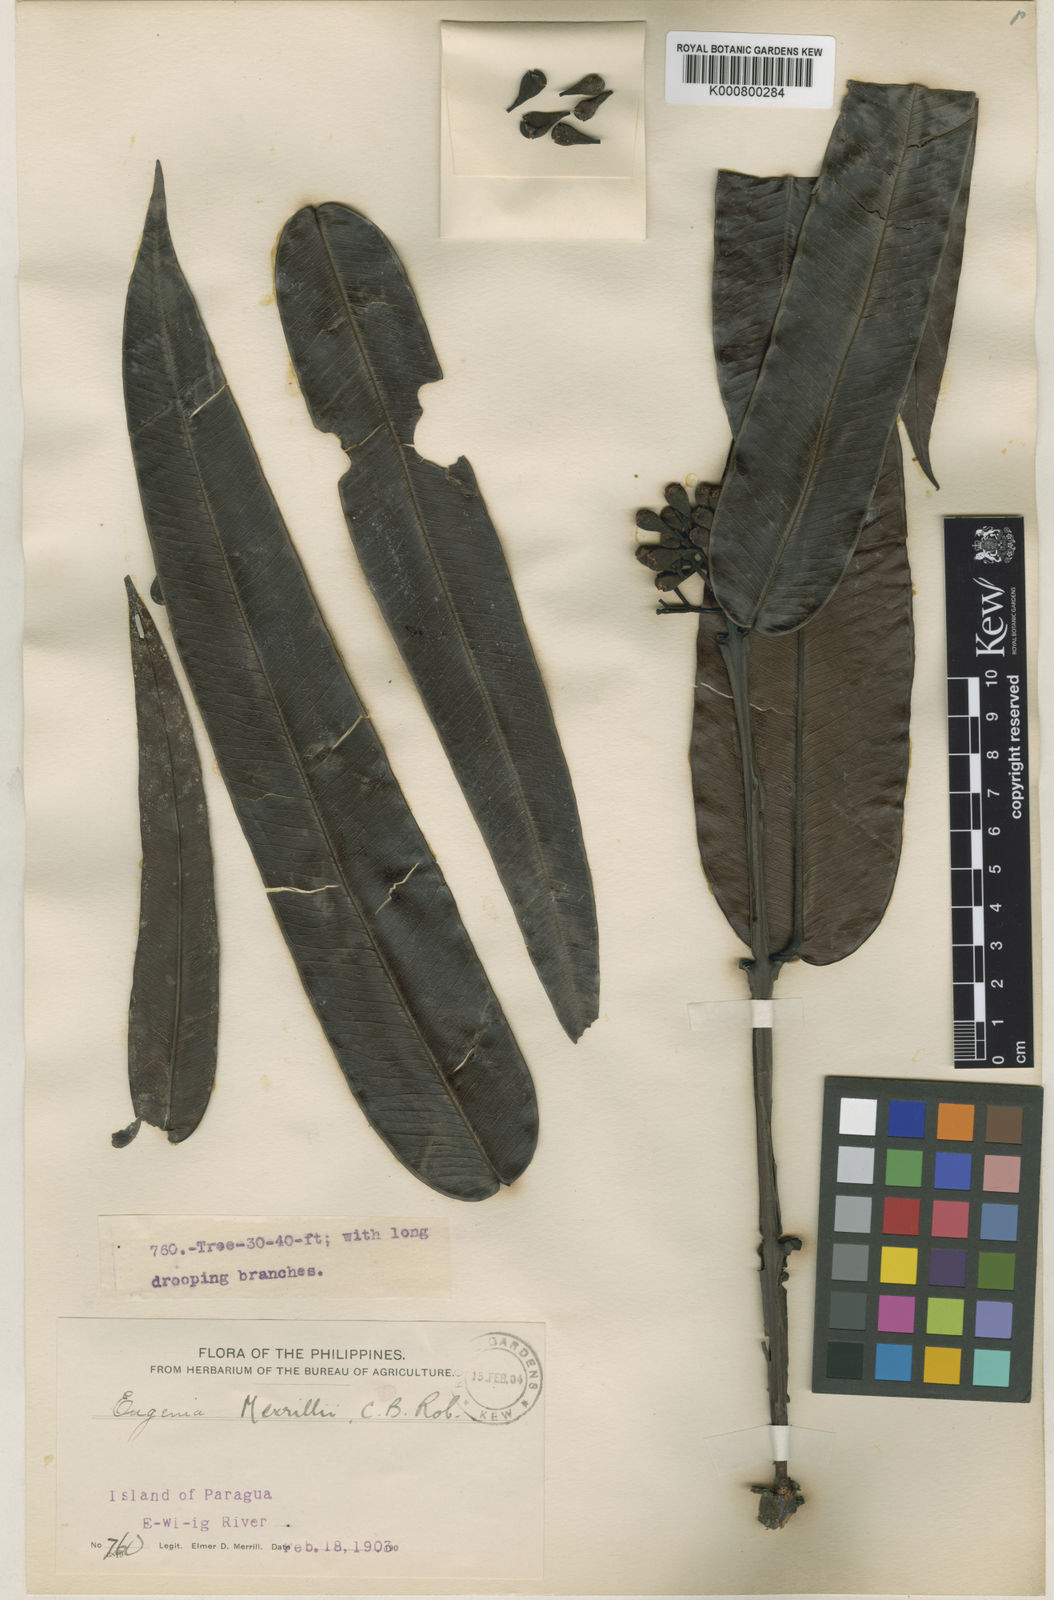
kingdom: Plantae
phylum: Tracheophyta
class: Magnoliopsida
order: Myrtales
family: Myrtaceae
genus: Syzygium
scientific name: Syzygium jambos
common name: Malabar plum
